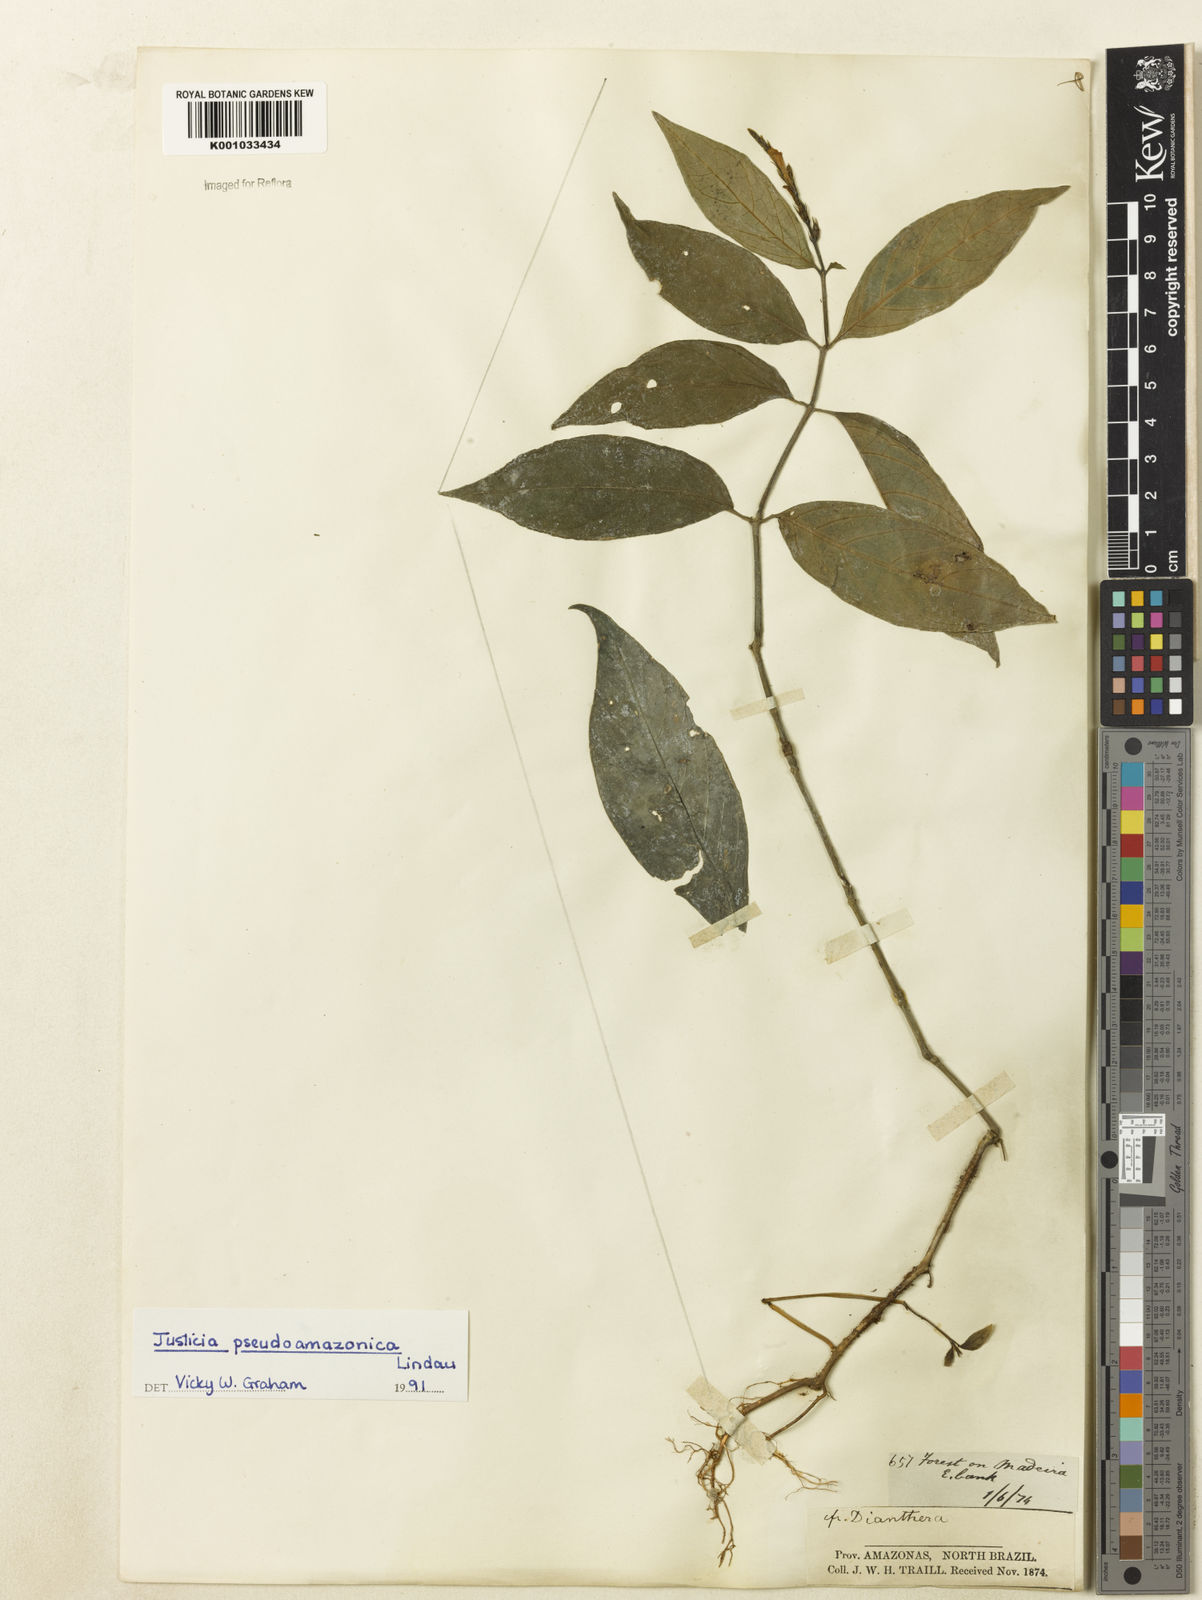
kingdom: Plantae
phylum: Tracheophyta
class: Magnoliopsida
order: Lamiales
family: Acanthaceae
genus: Justicia
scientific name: Justicia pseudoamazonica
